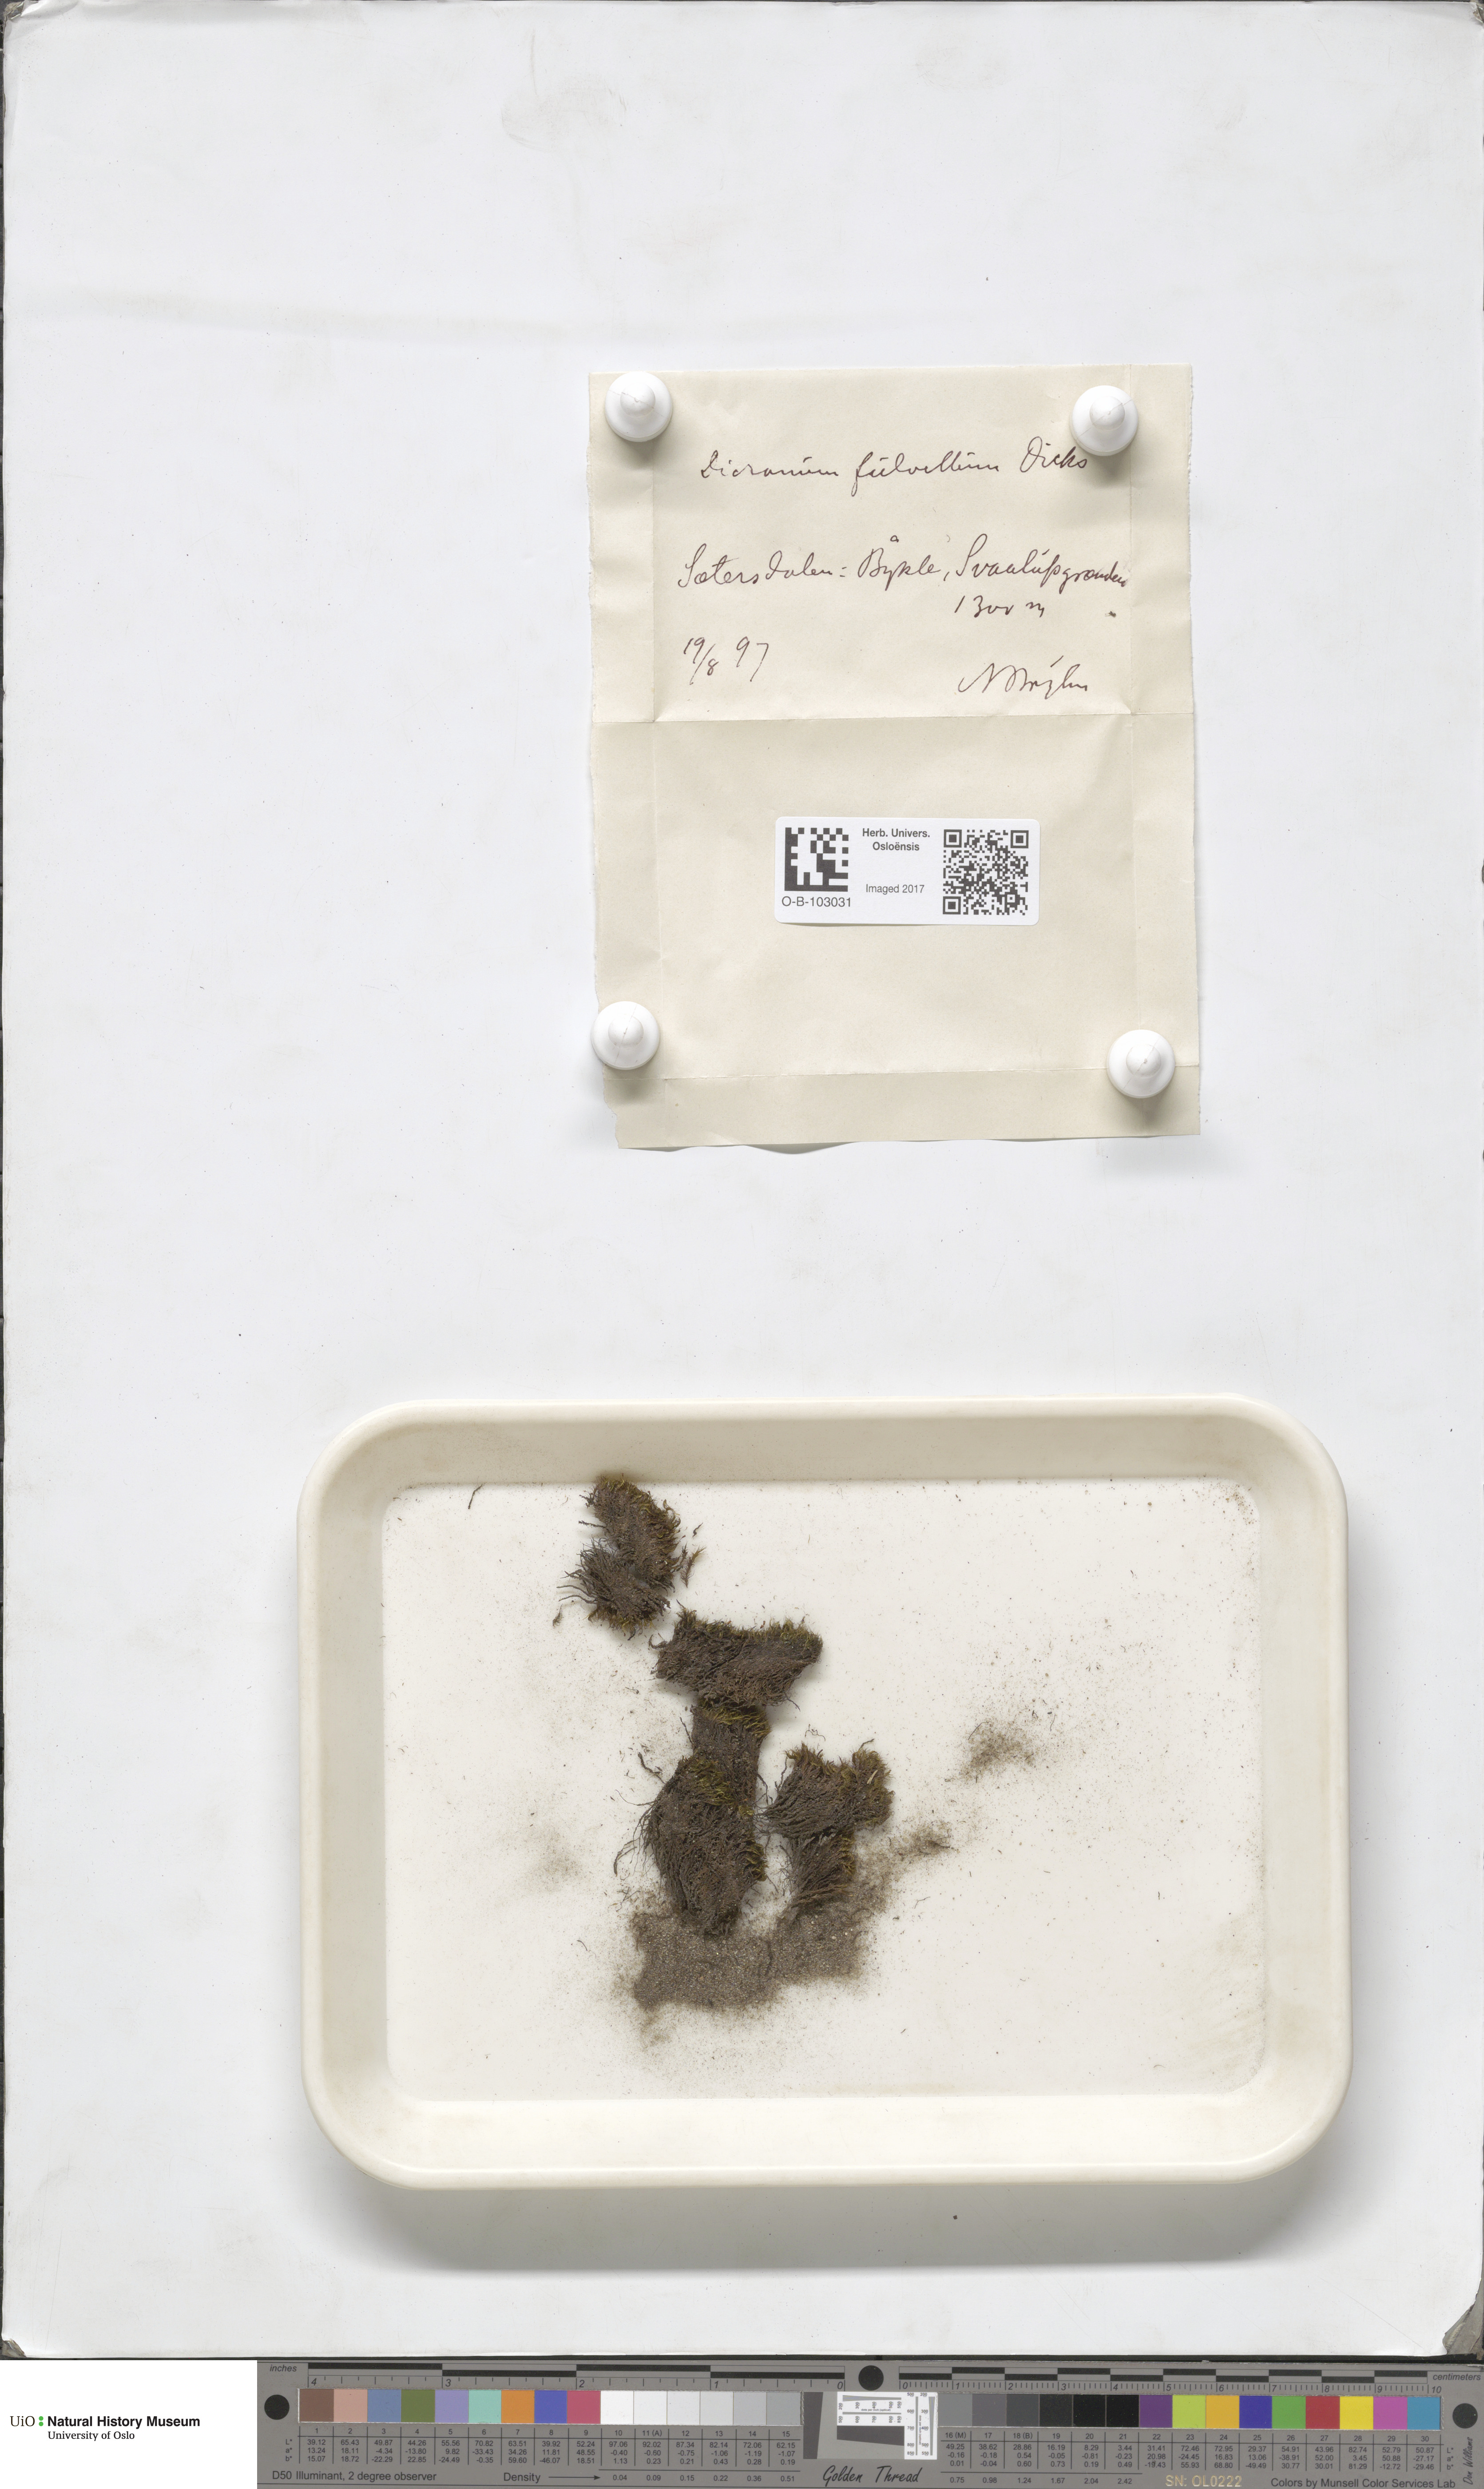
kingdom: Plantae
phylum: Bryophyta
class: Bryopsida
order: Dicranales
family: Rhabdoweisiaceae
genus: Arctoa
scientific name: Arctoa fulvella
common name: Tawny fork moss
